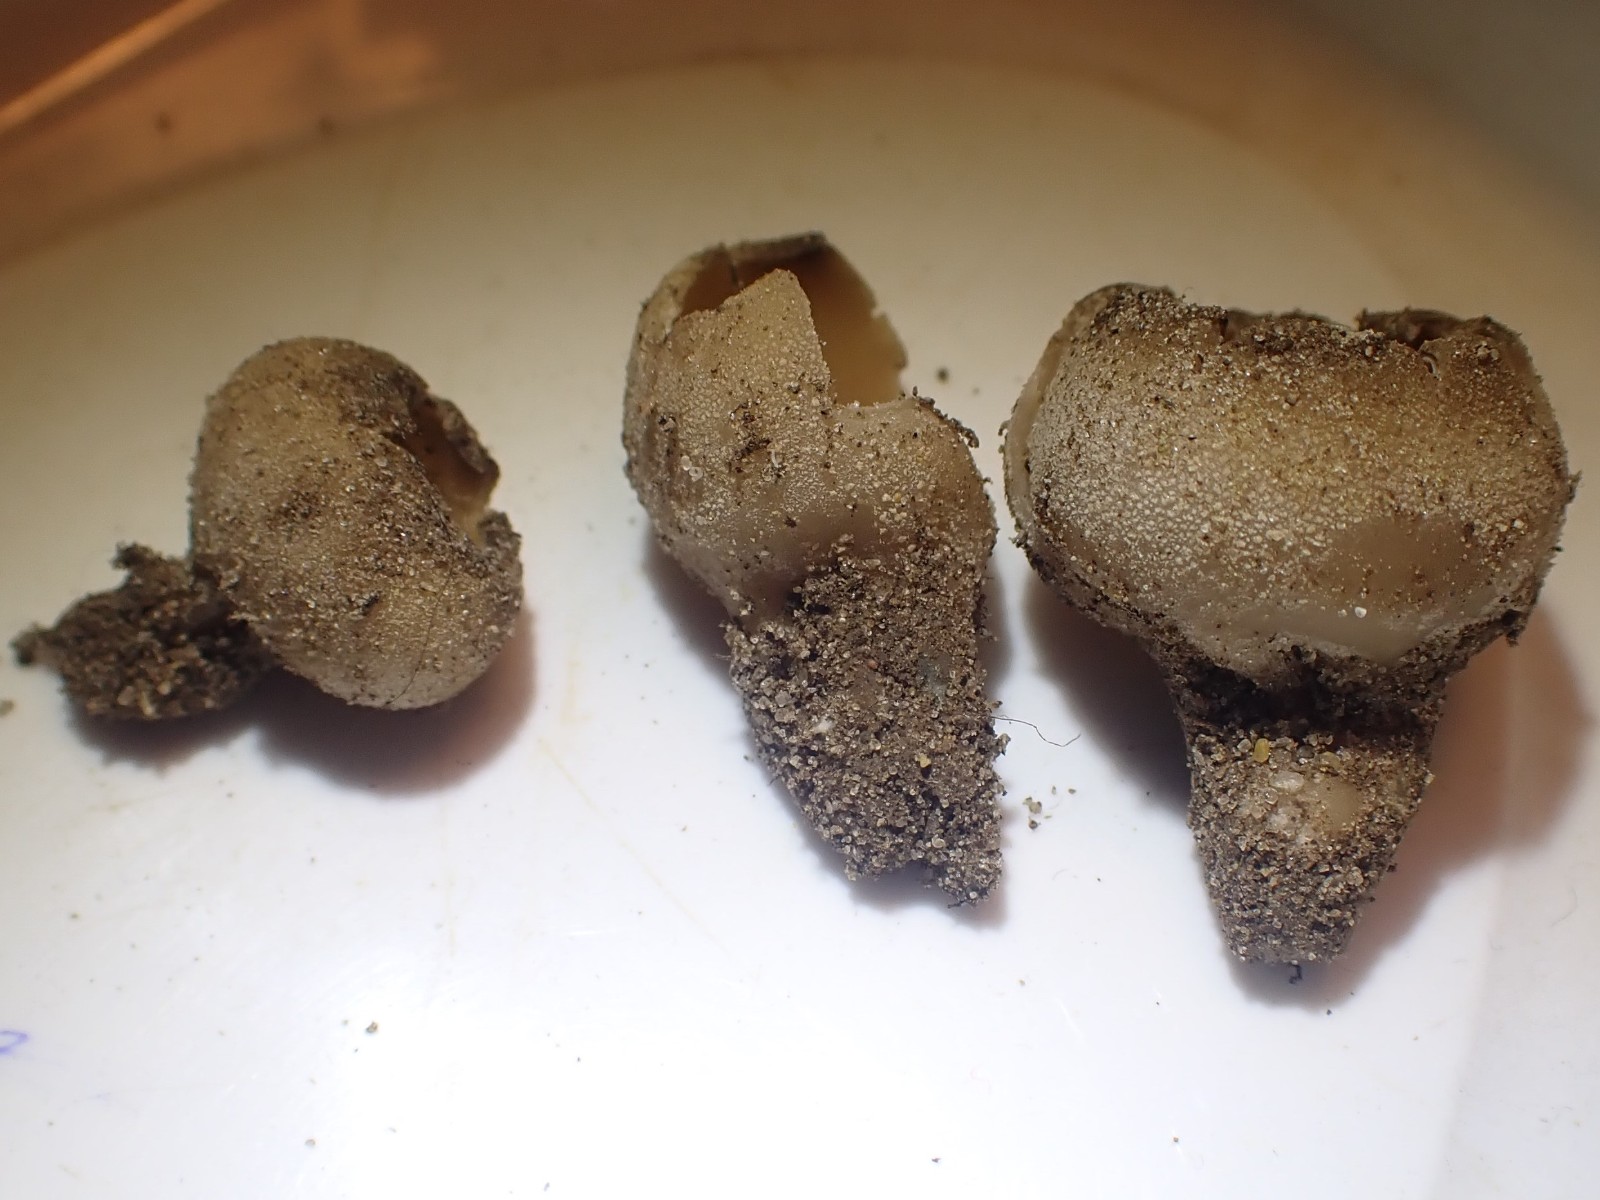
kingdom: Fungi
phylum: Ascomycota
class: Pezizomycetes
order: Pezizales
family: Pyronemataceae
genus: Tarzetta
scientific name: Tarzetta cupularis
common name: gulbrun pokalbæger
